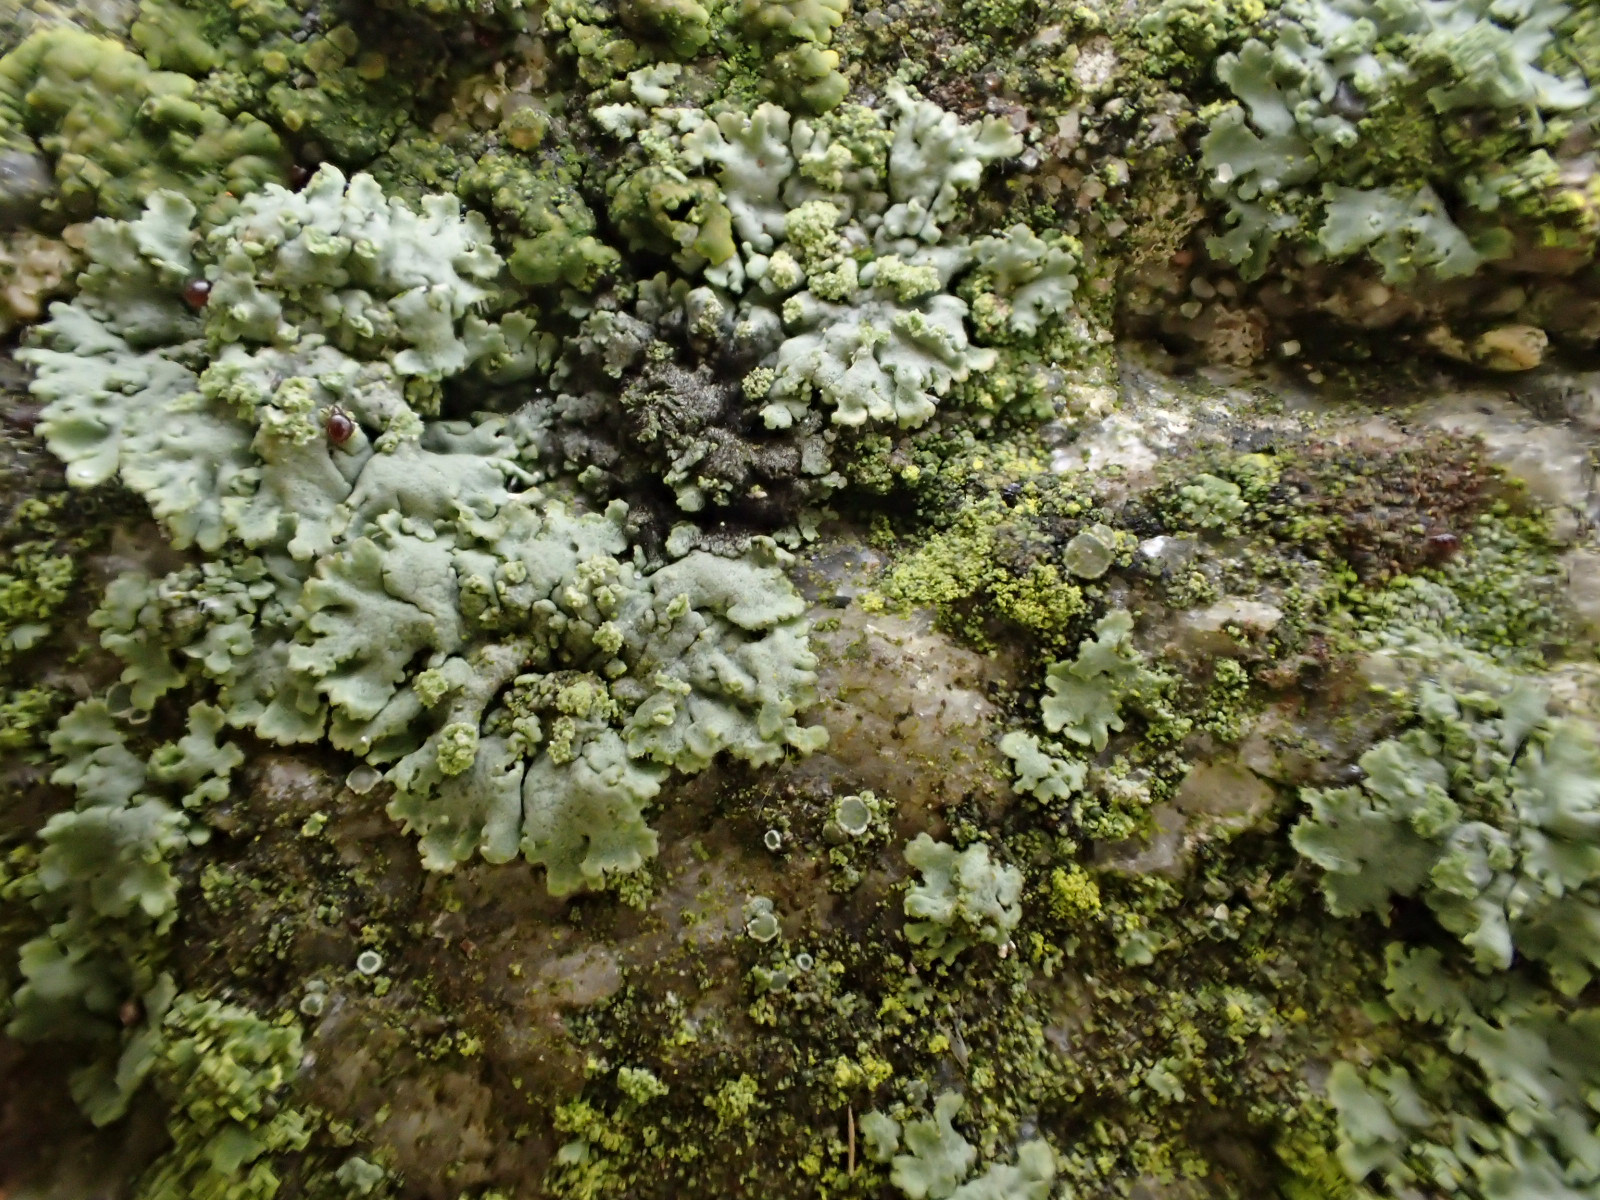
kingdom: Fungi
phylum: Ascomycota
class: Lecanoromycetes
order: Caliciales
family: Physciaceae
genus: Phaeophyscia
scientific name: Phaeophyscia orbicularis
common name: grågrøn rosetlav
